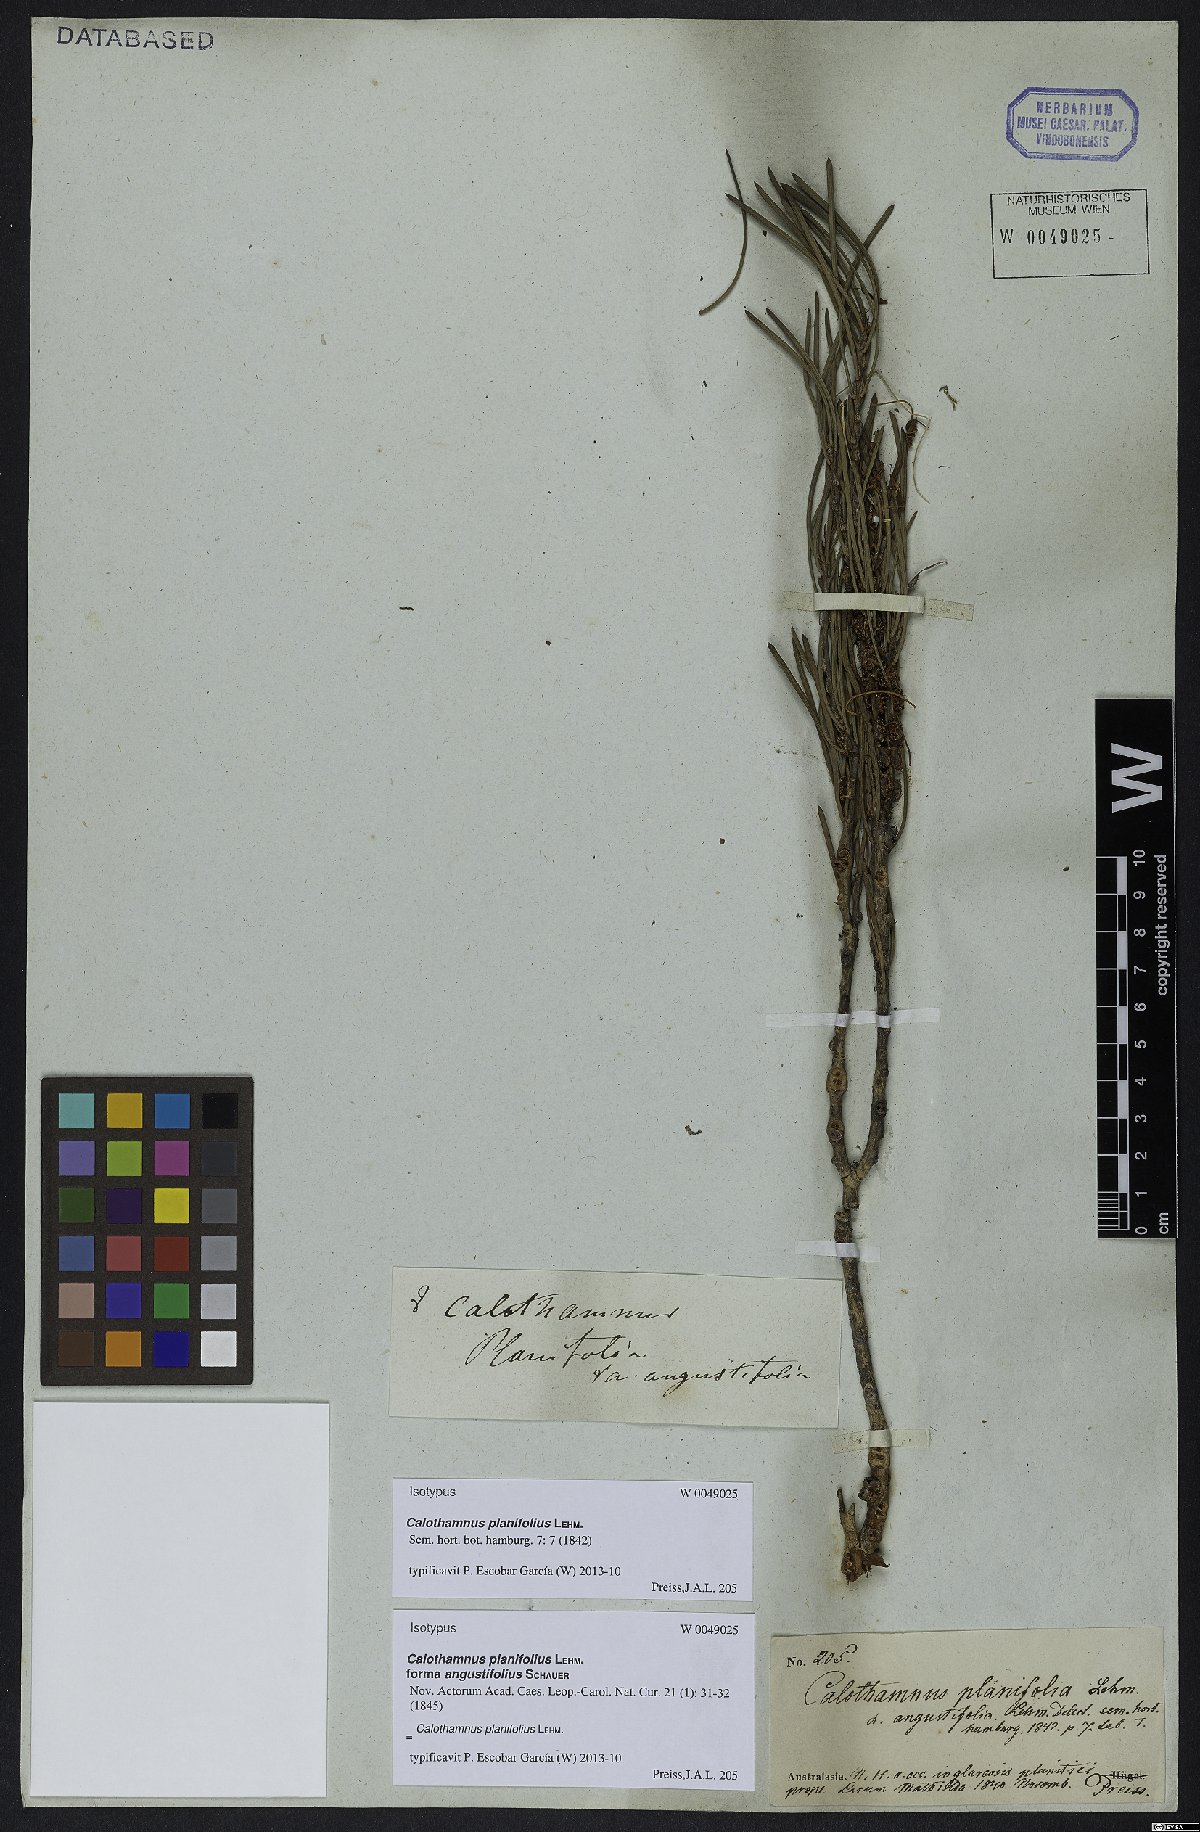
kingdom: Plantae
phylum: Tracheophyta
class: Magnoliopsida
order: Myrtales
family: Myrtaceae
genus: Melaleuca
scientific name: Melaleuca planifolia
